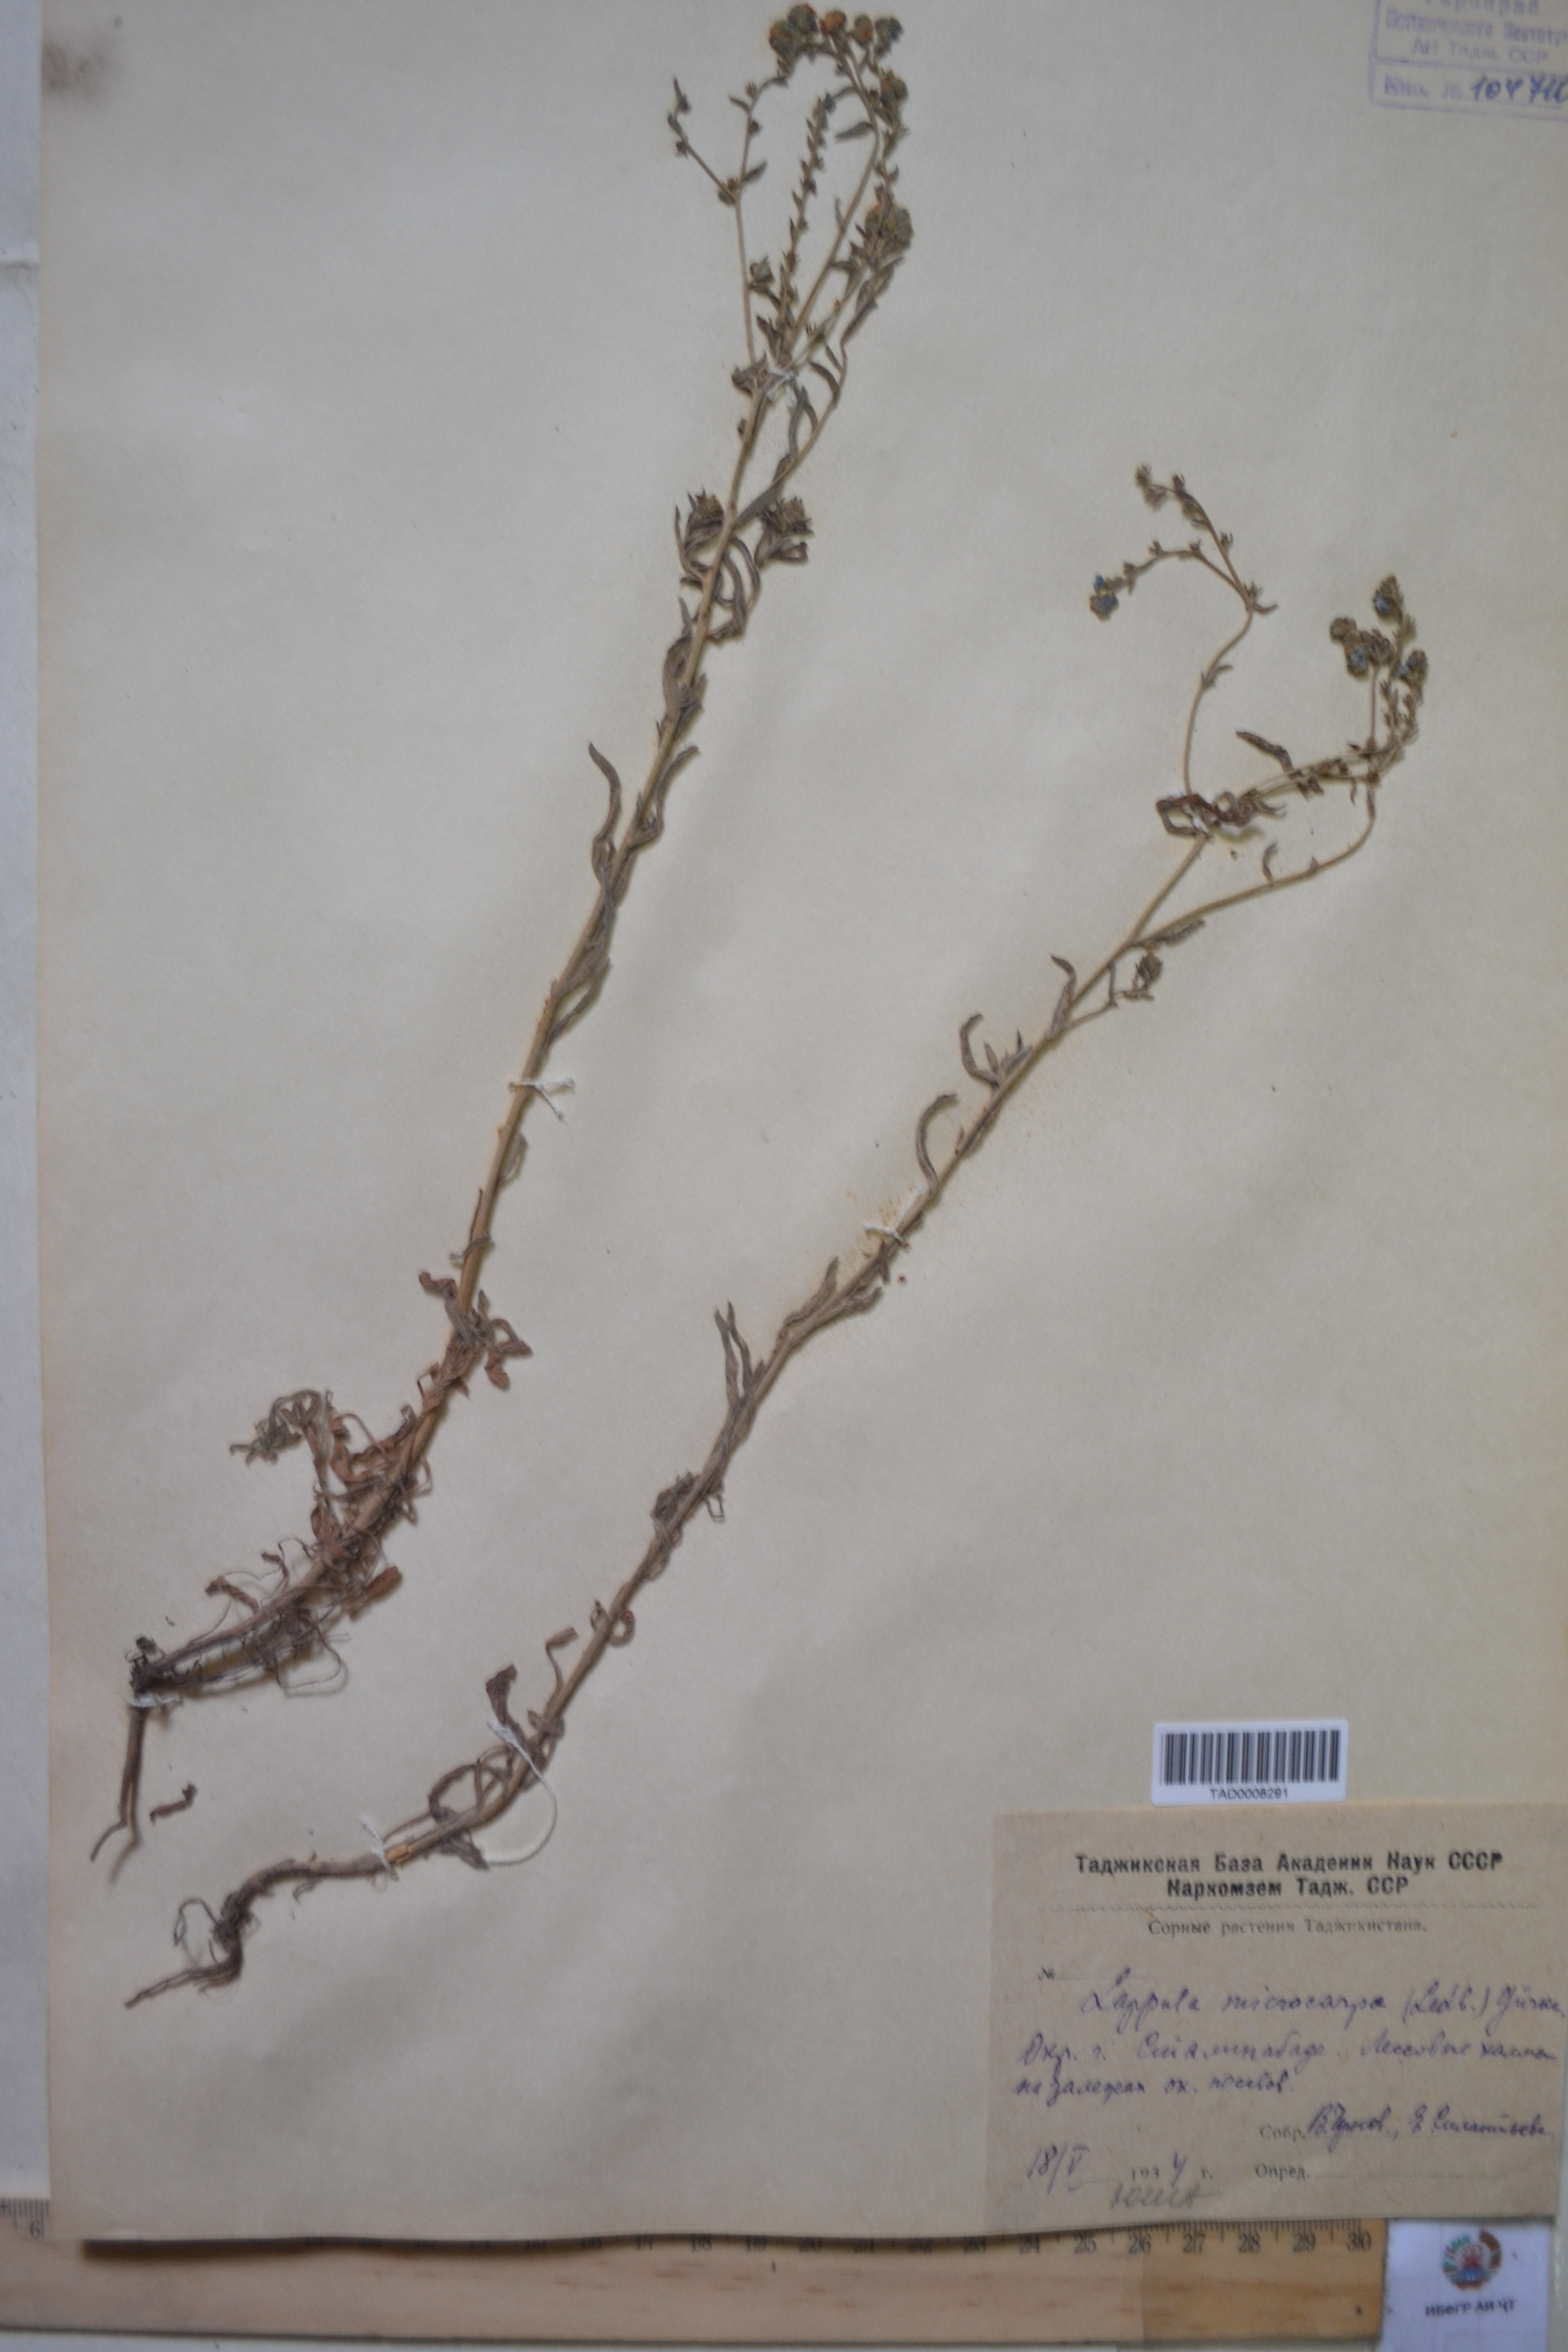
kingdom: Plantae
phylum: Tracheophyta
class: Magnoliopsida
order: Boraginales
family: Boraginaceae
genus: Lappula
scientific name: Lappula microcarpa
